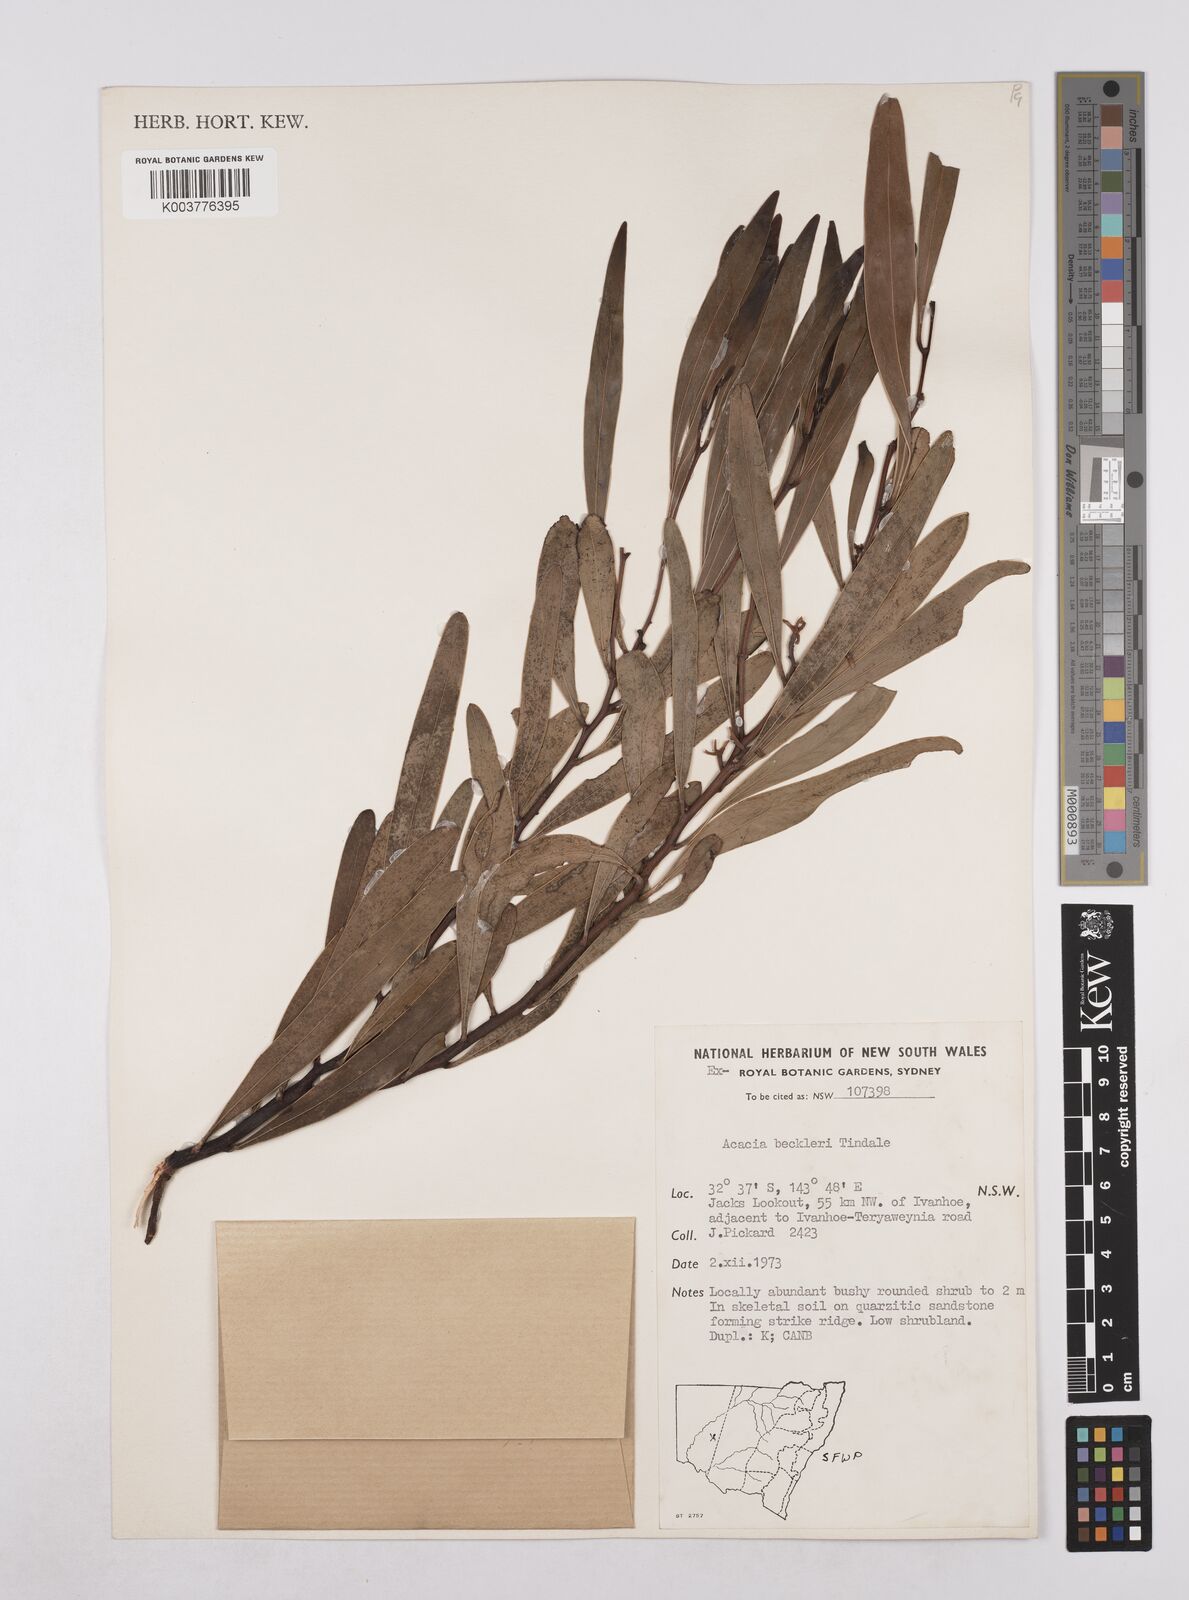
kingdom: Plantae
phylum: Tracheophyta
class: Magnoliopsida
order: Fabales
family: Fabaceae
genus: Acacia
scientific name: Acacia beckleri
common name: Barrier range wattle
